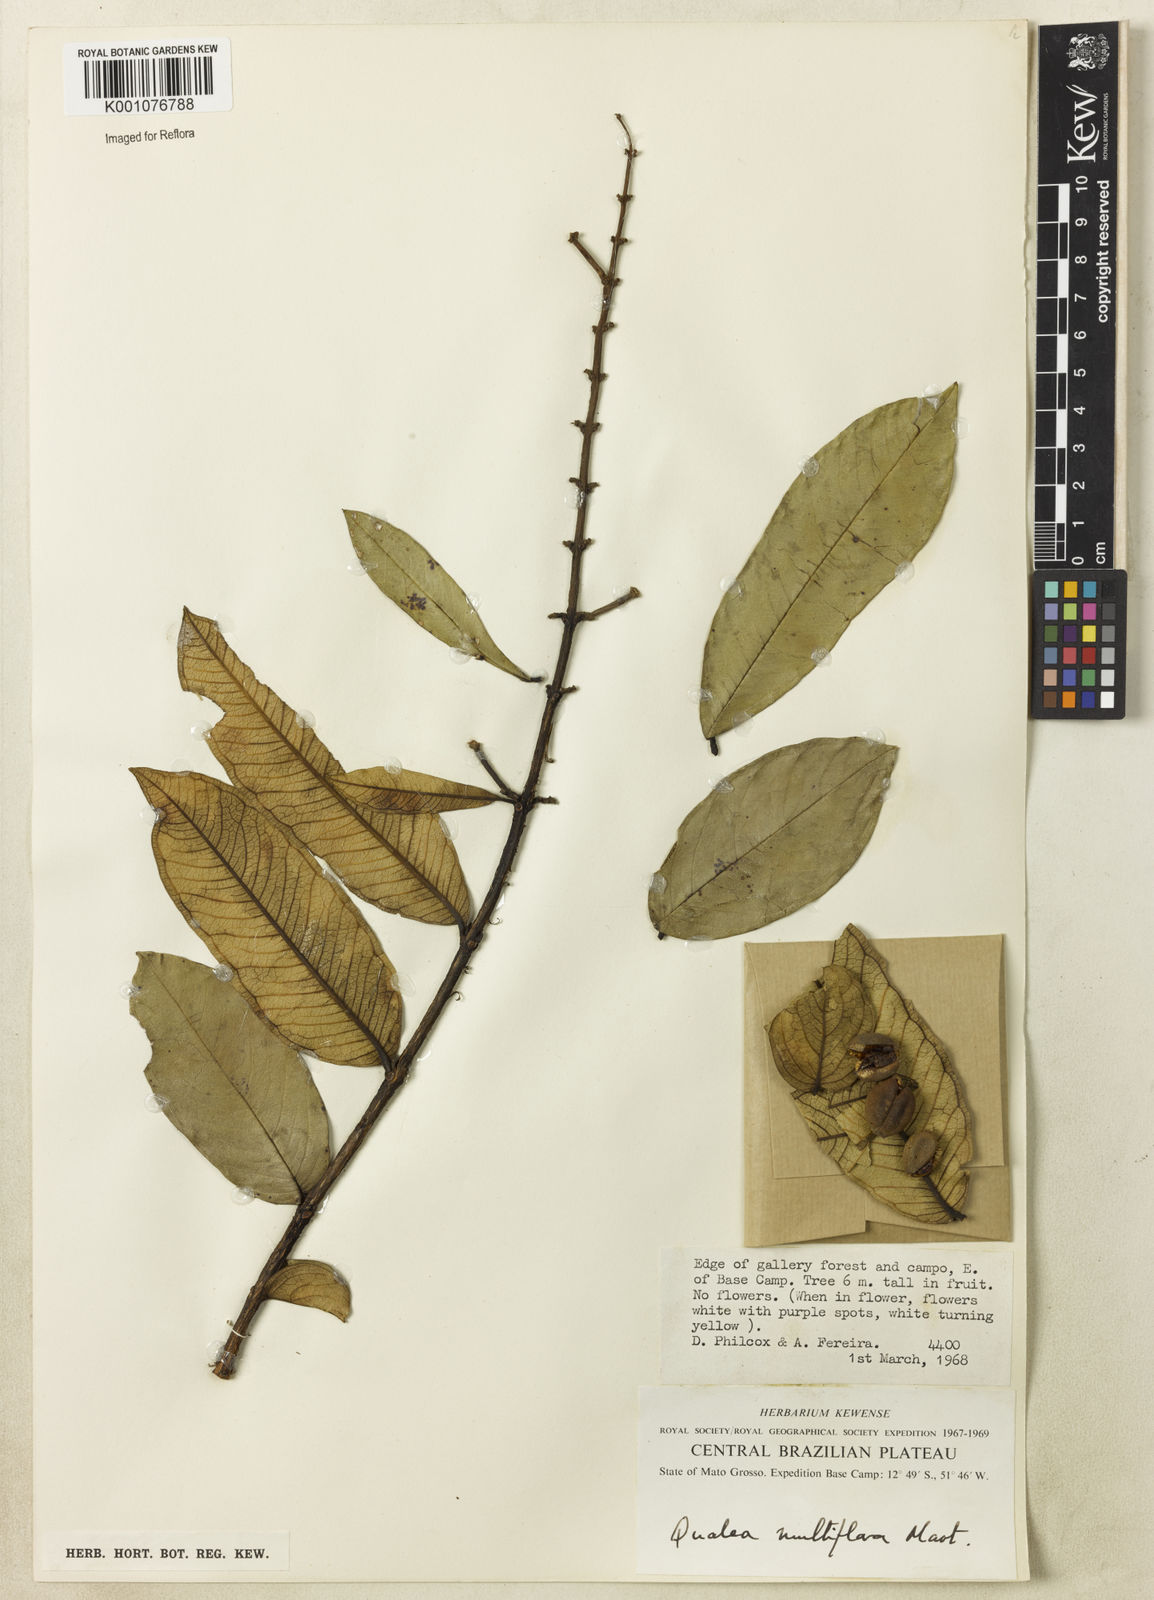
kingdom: Plantae
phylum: Tracheophyta
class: Magnoliopsida
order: Myrtales
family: Vochysiaceae
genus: Qualea
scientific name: Qualea multiflora
